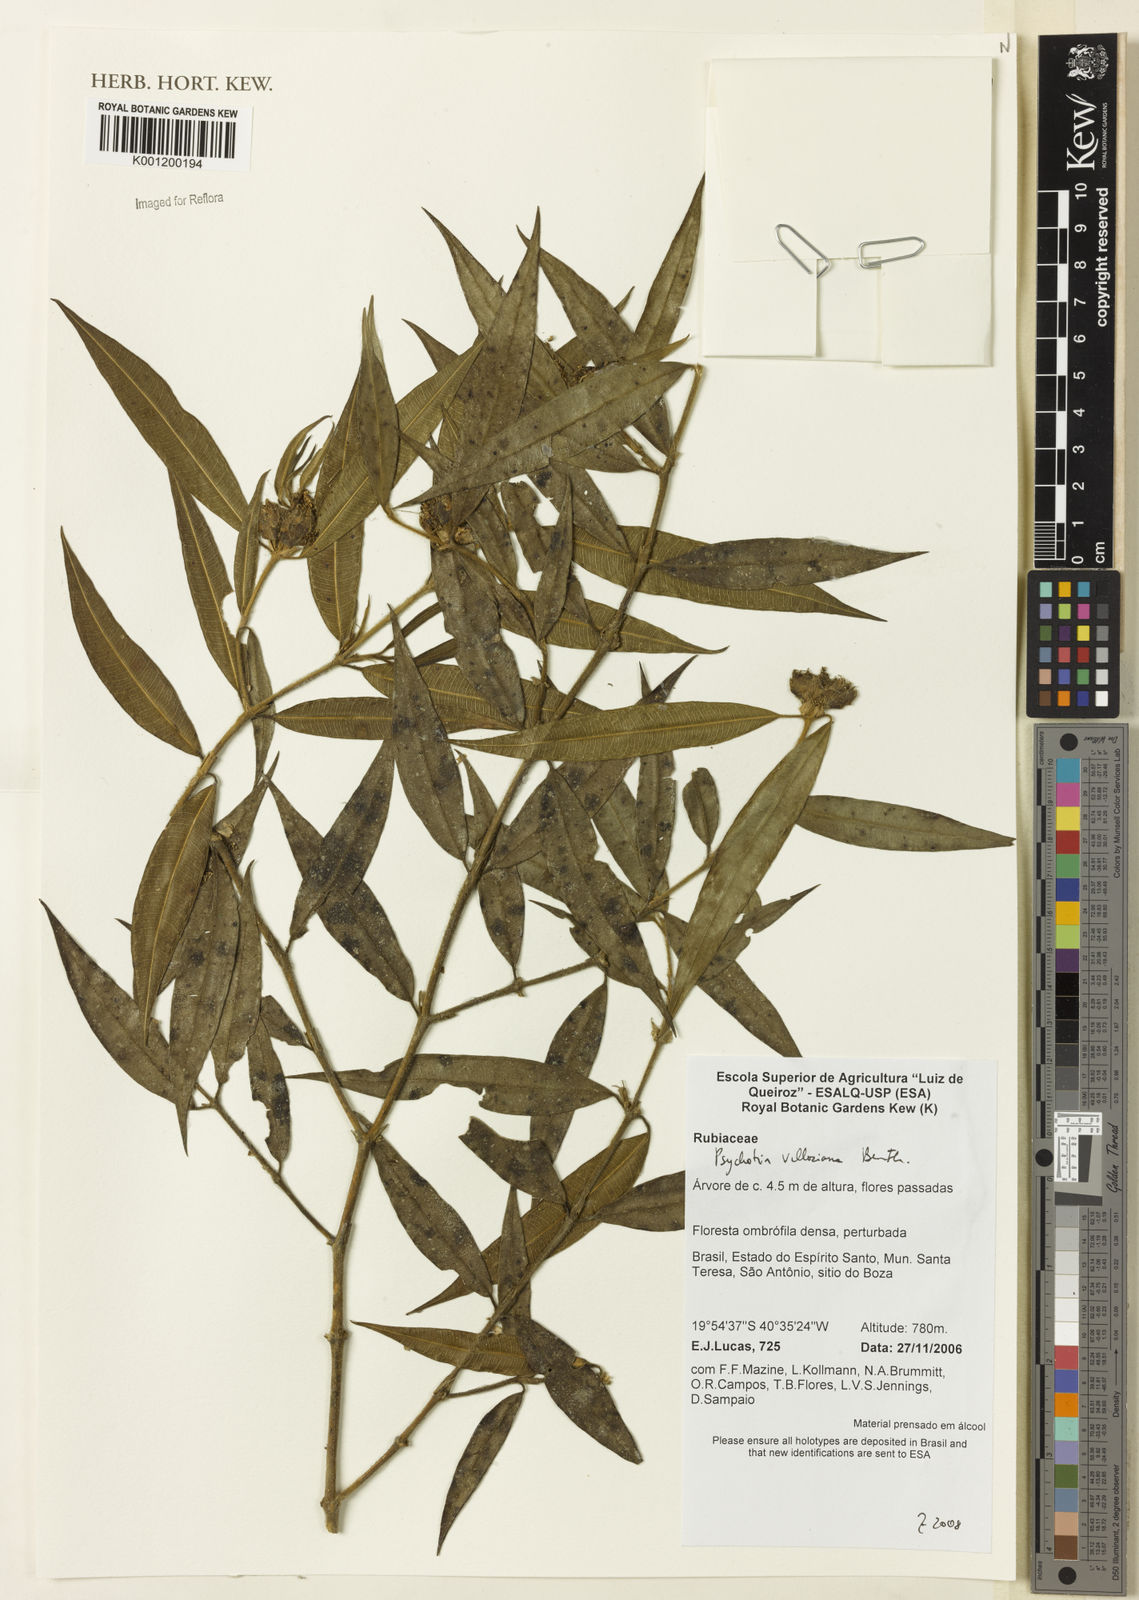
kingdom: Plantae
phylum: Tracheophyta
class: Magnoliopsida
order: Gentianales
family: Rubiaceae
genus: Palicourea
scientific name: Palicourea sessilis
